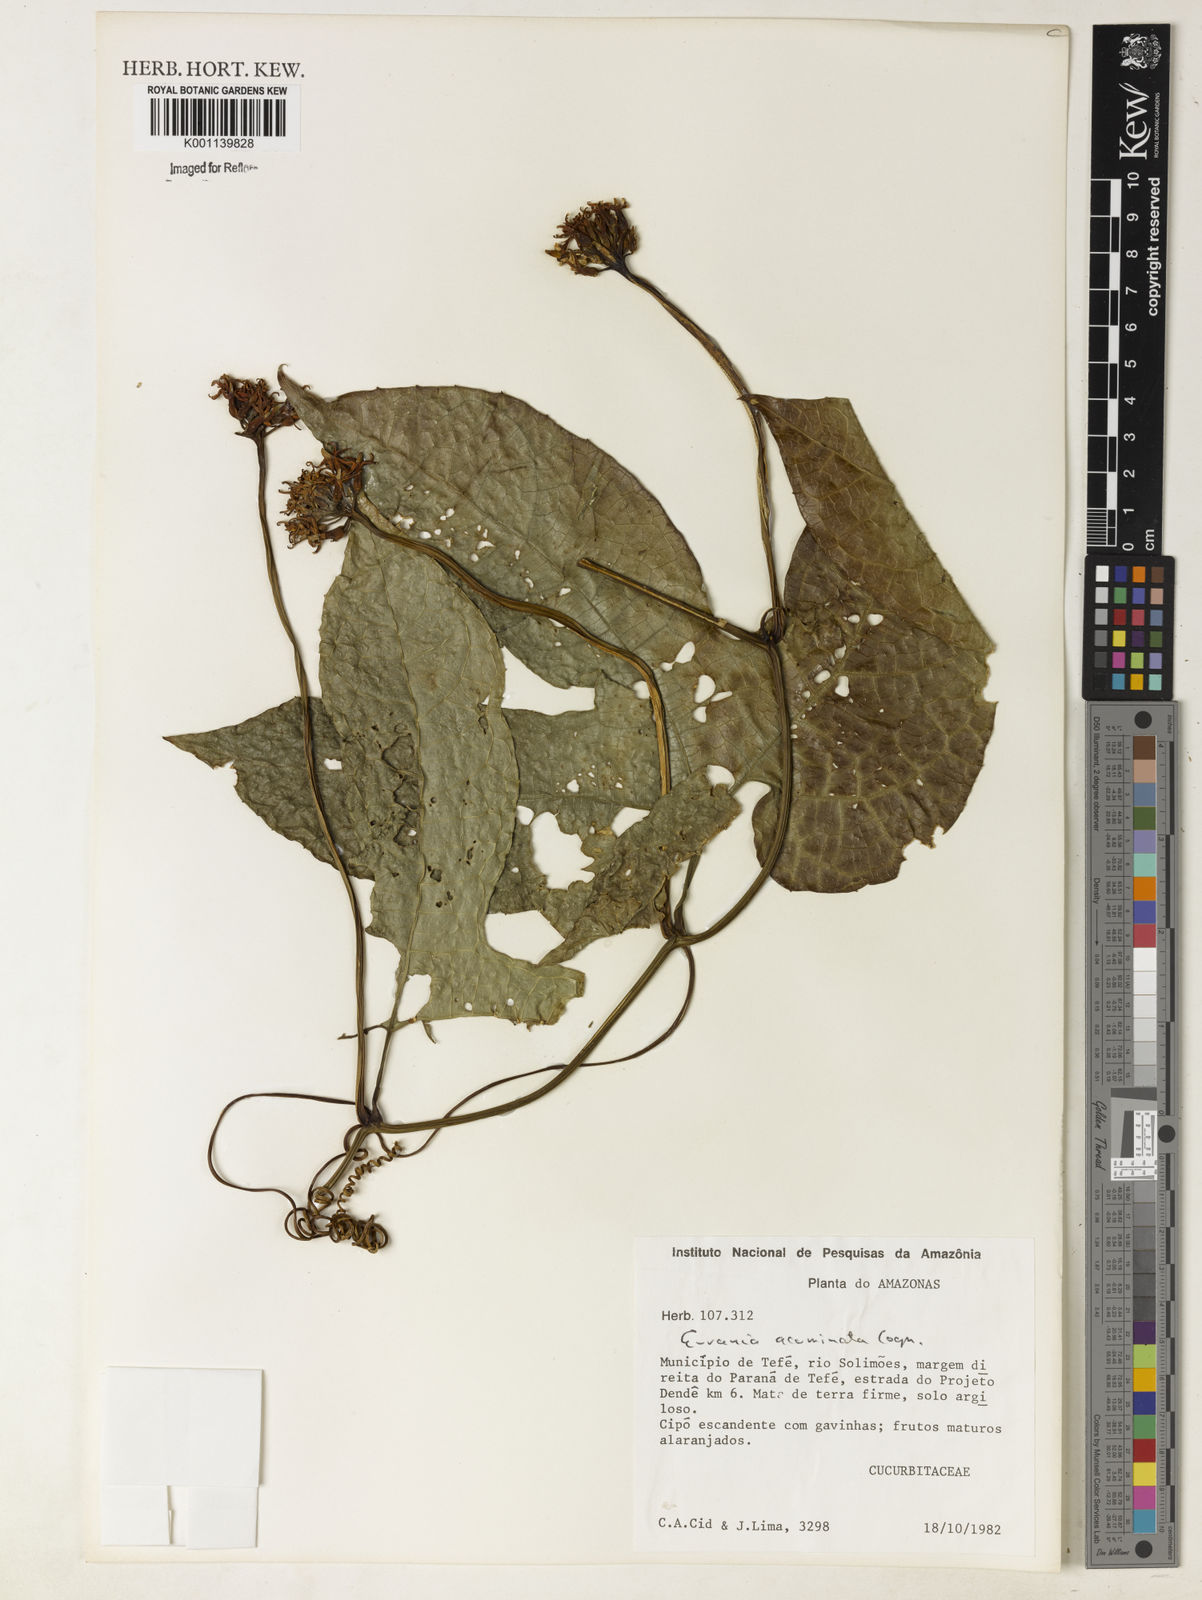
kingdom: Plantae
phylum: Tracheophyta
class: Magnoliopsida
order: Cucurbitales
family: Cucurbitaceae
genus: Gurania
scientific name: Gurania acuminata
